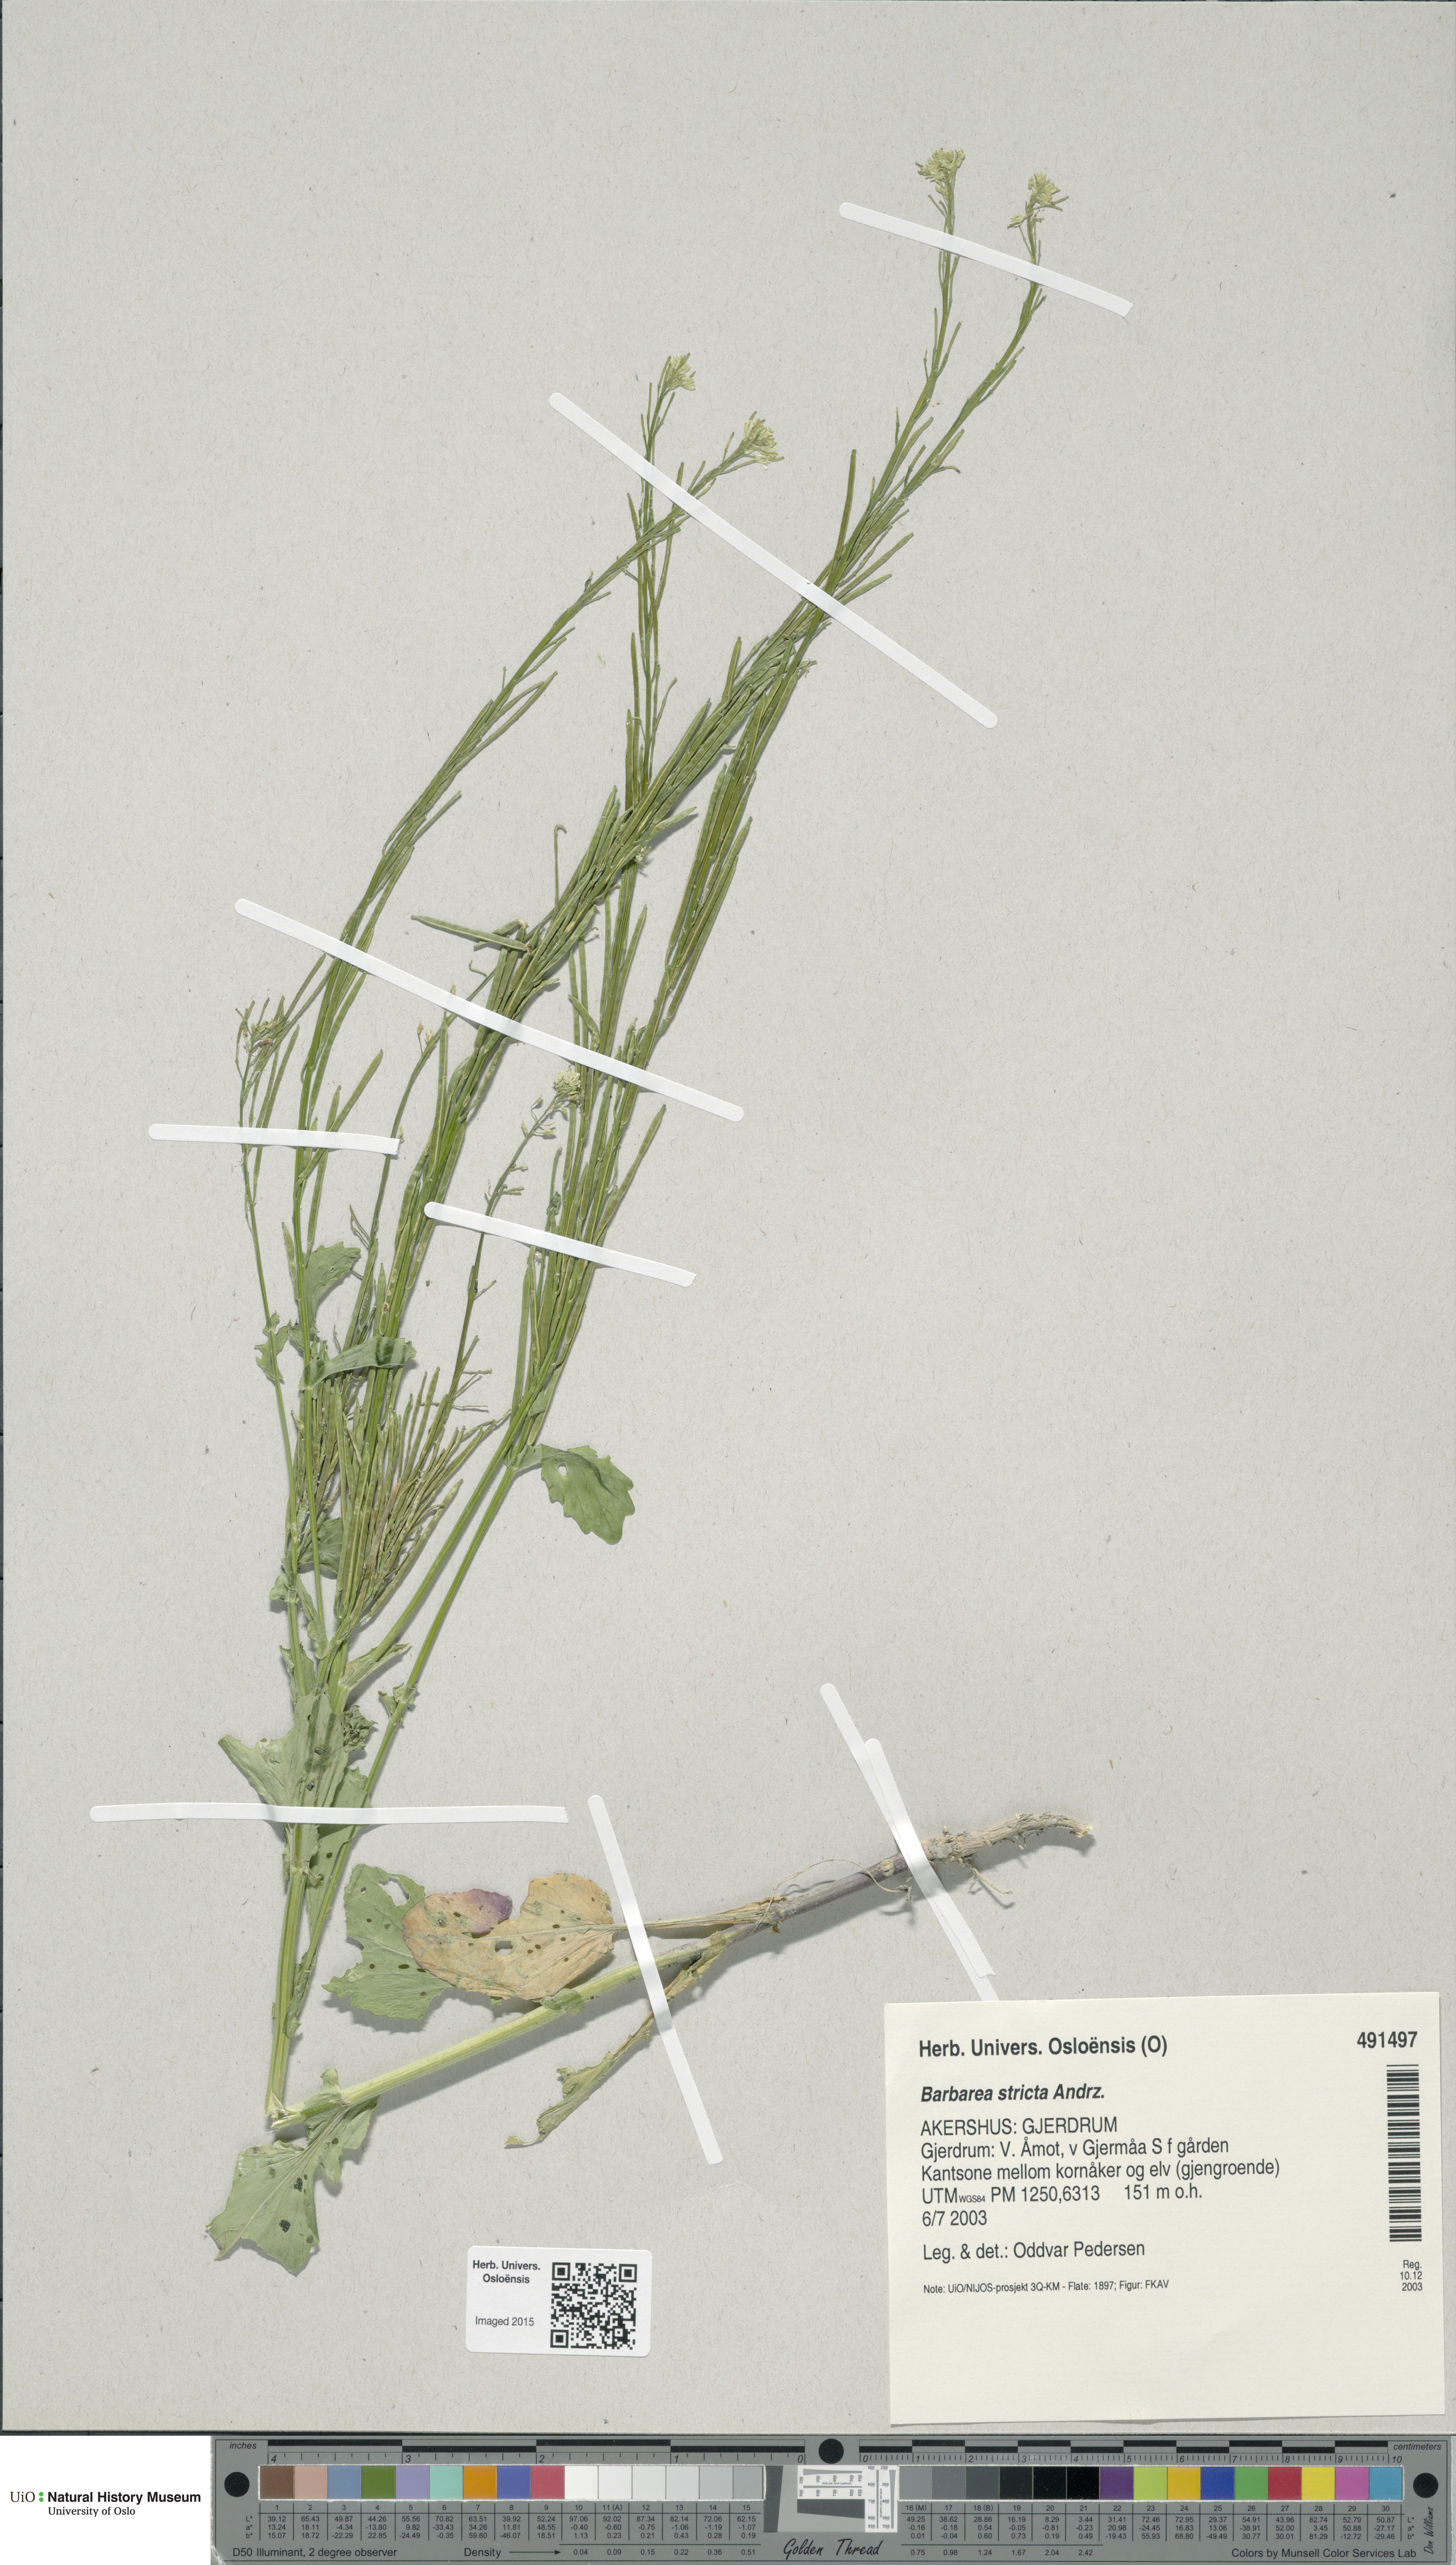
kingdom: Plantae
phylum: Tracheophyta
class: Magnoliopsida
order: Brassicales
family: Brassicaceae
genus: Barbarea
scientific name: Barbarea stricta
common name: Small-flowered winter-cress
